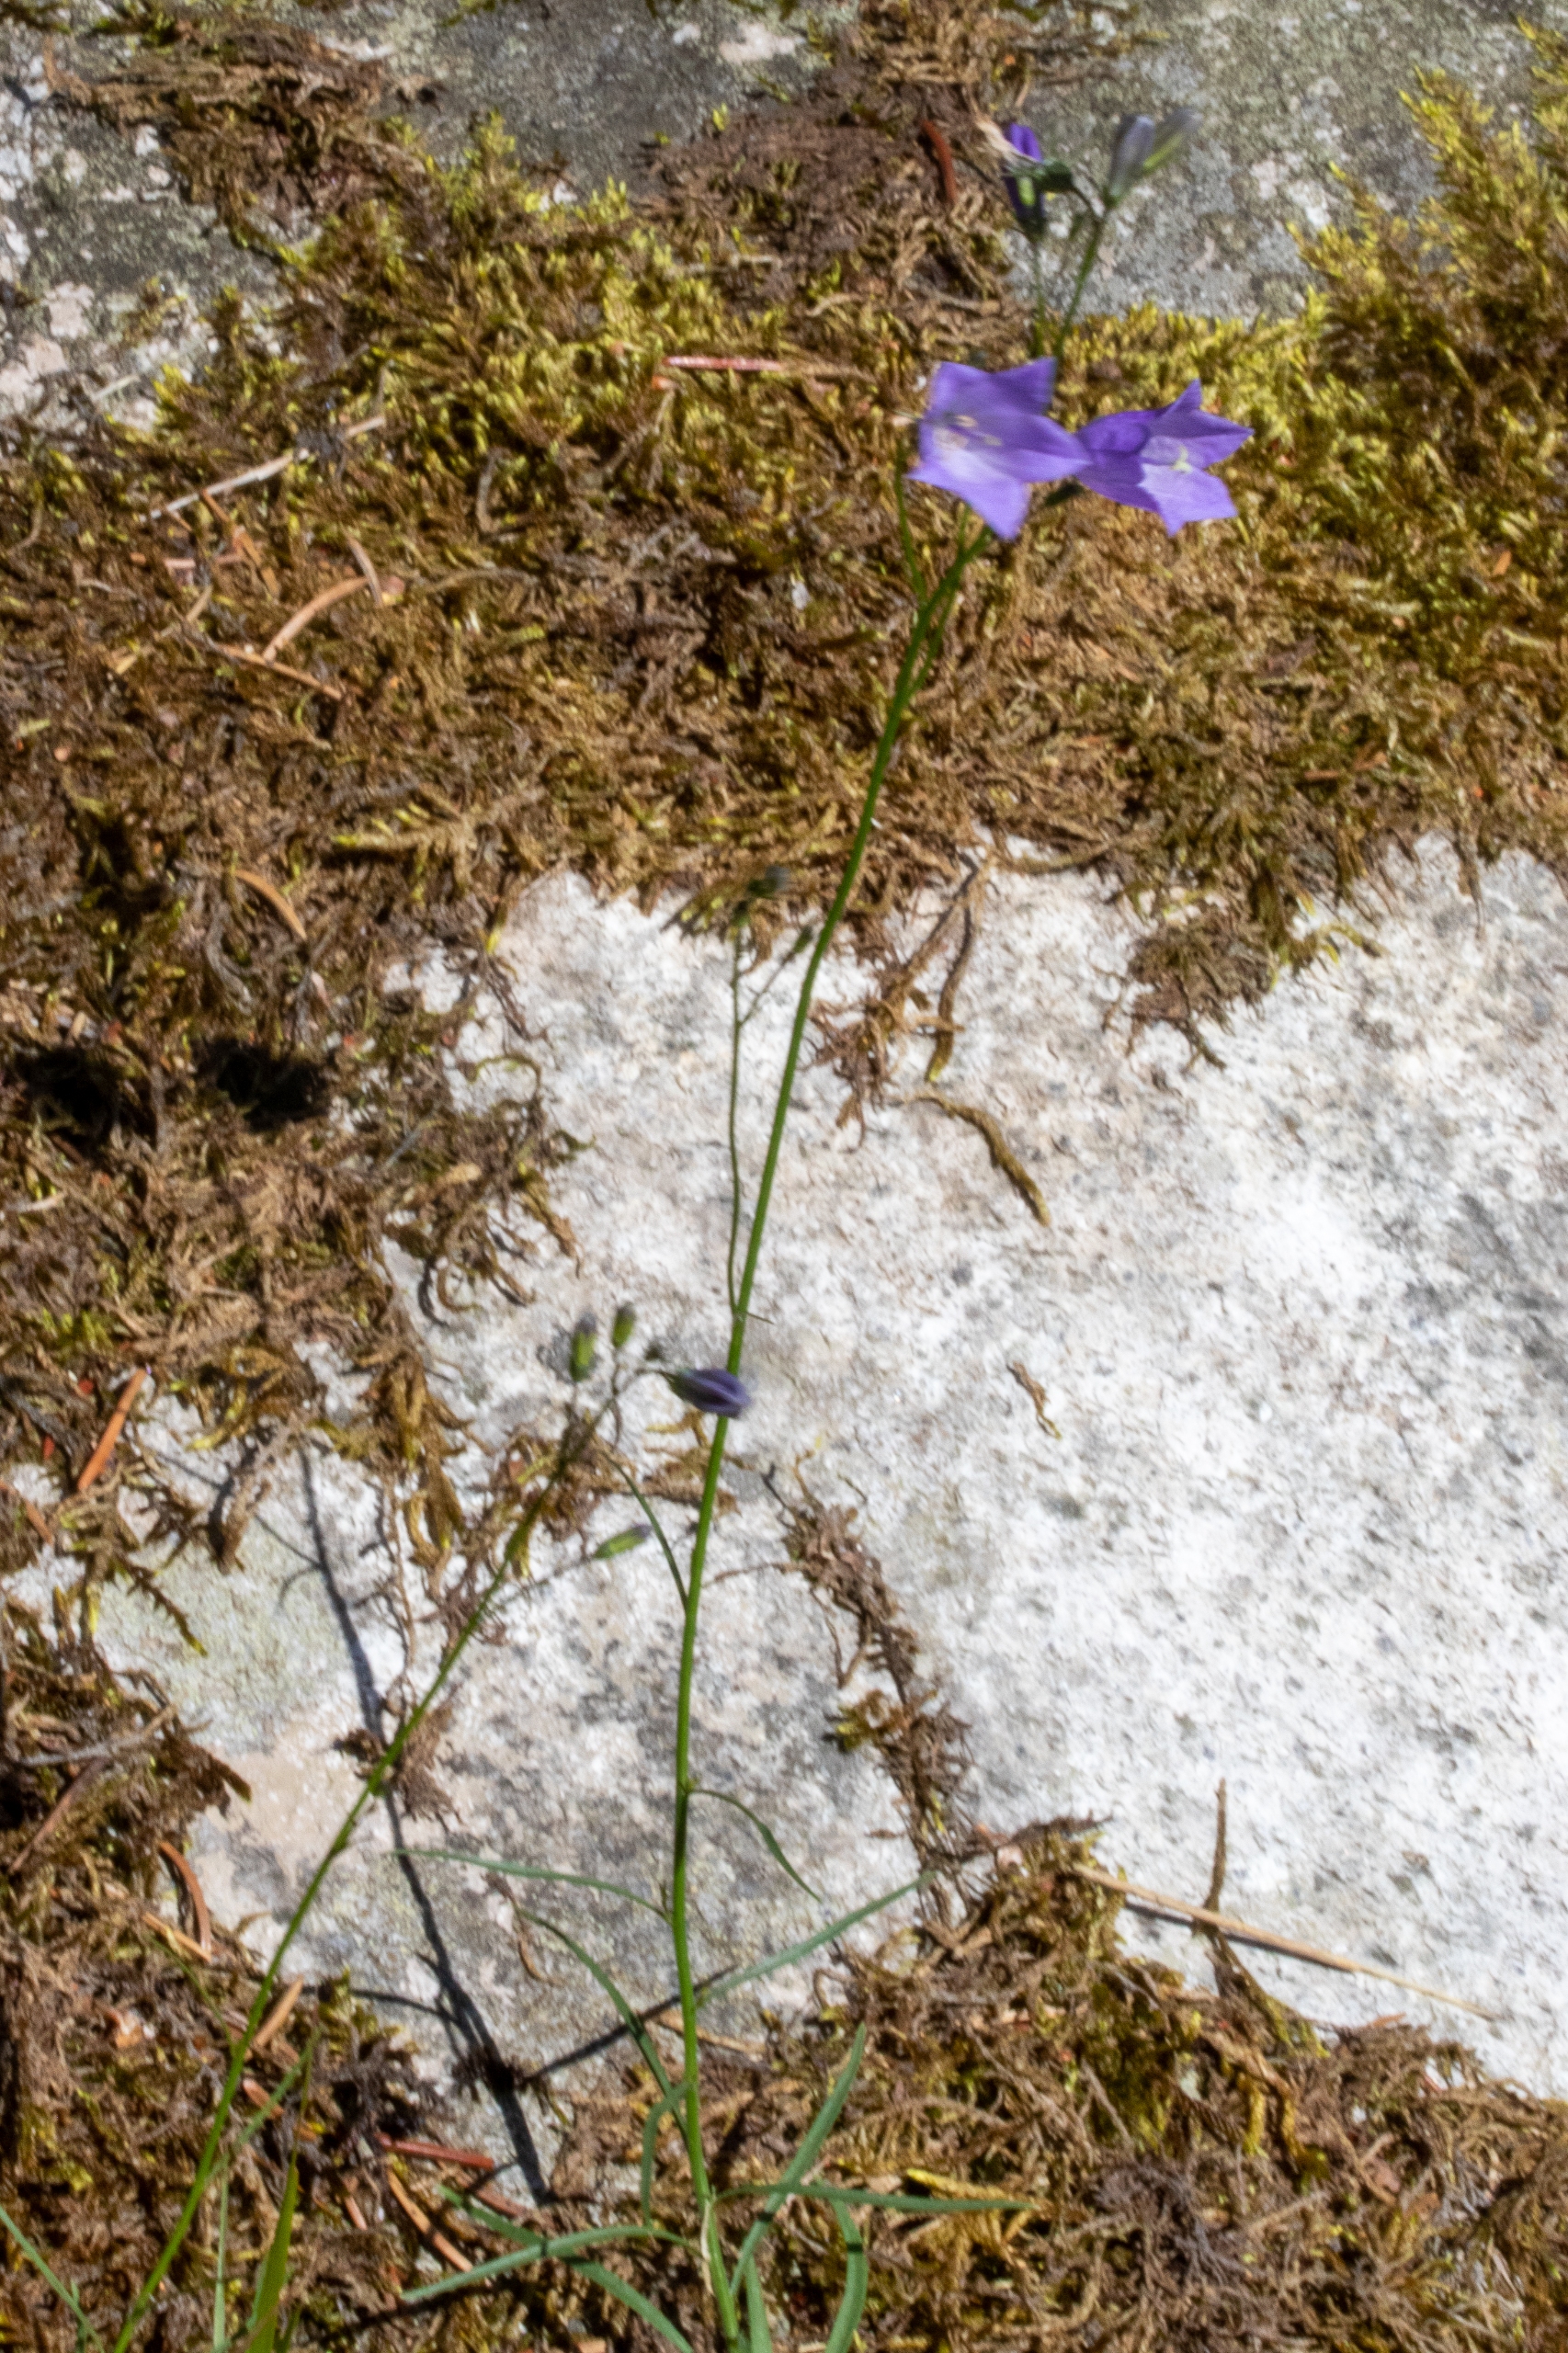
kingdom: Plantae
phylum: Tracheophyta
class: Magnoliopsida
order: Asterales
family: Campanulaceae
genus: Campanula
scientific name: Campanula rotundifolia
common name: Liden klokke
